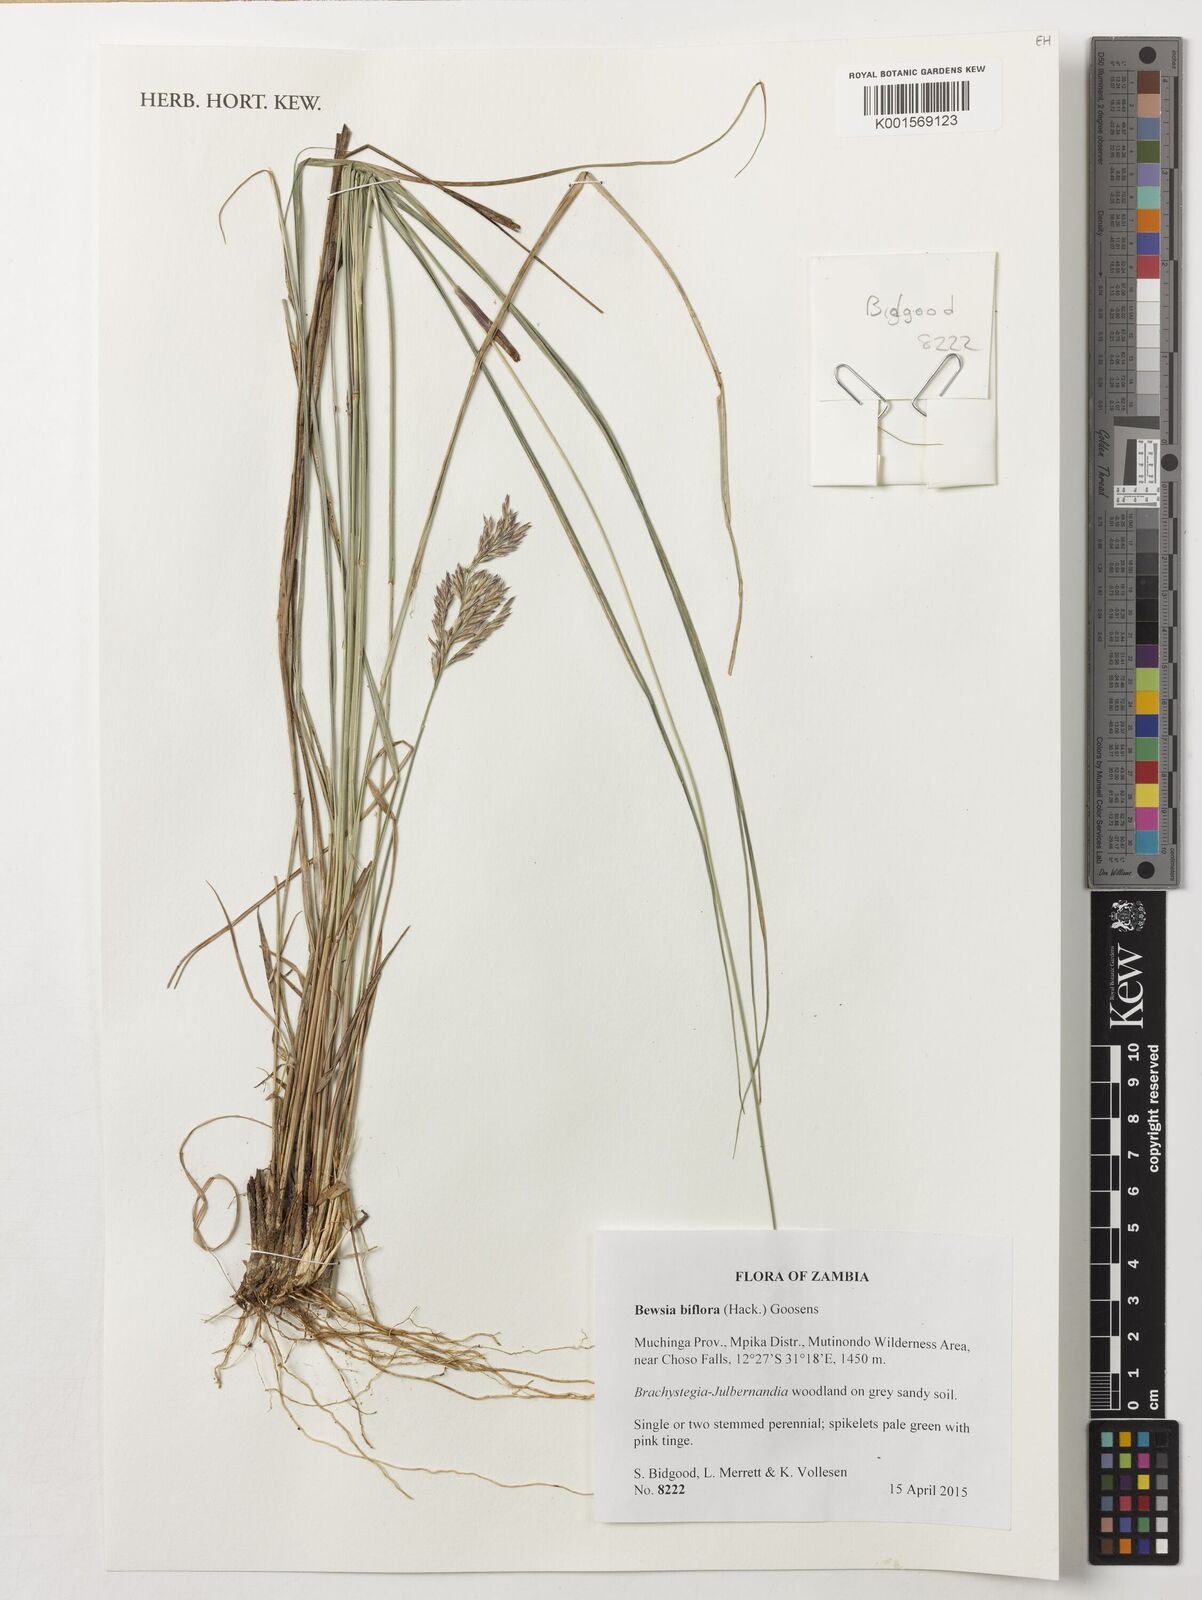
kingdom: Plantae
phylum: Tracheophyta
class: Liliopsida
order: Poales
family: Poaceae
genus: Bewsia
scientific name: Bewsia biflora
